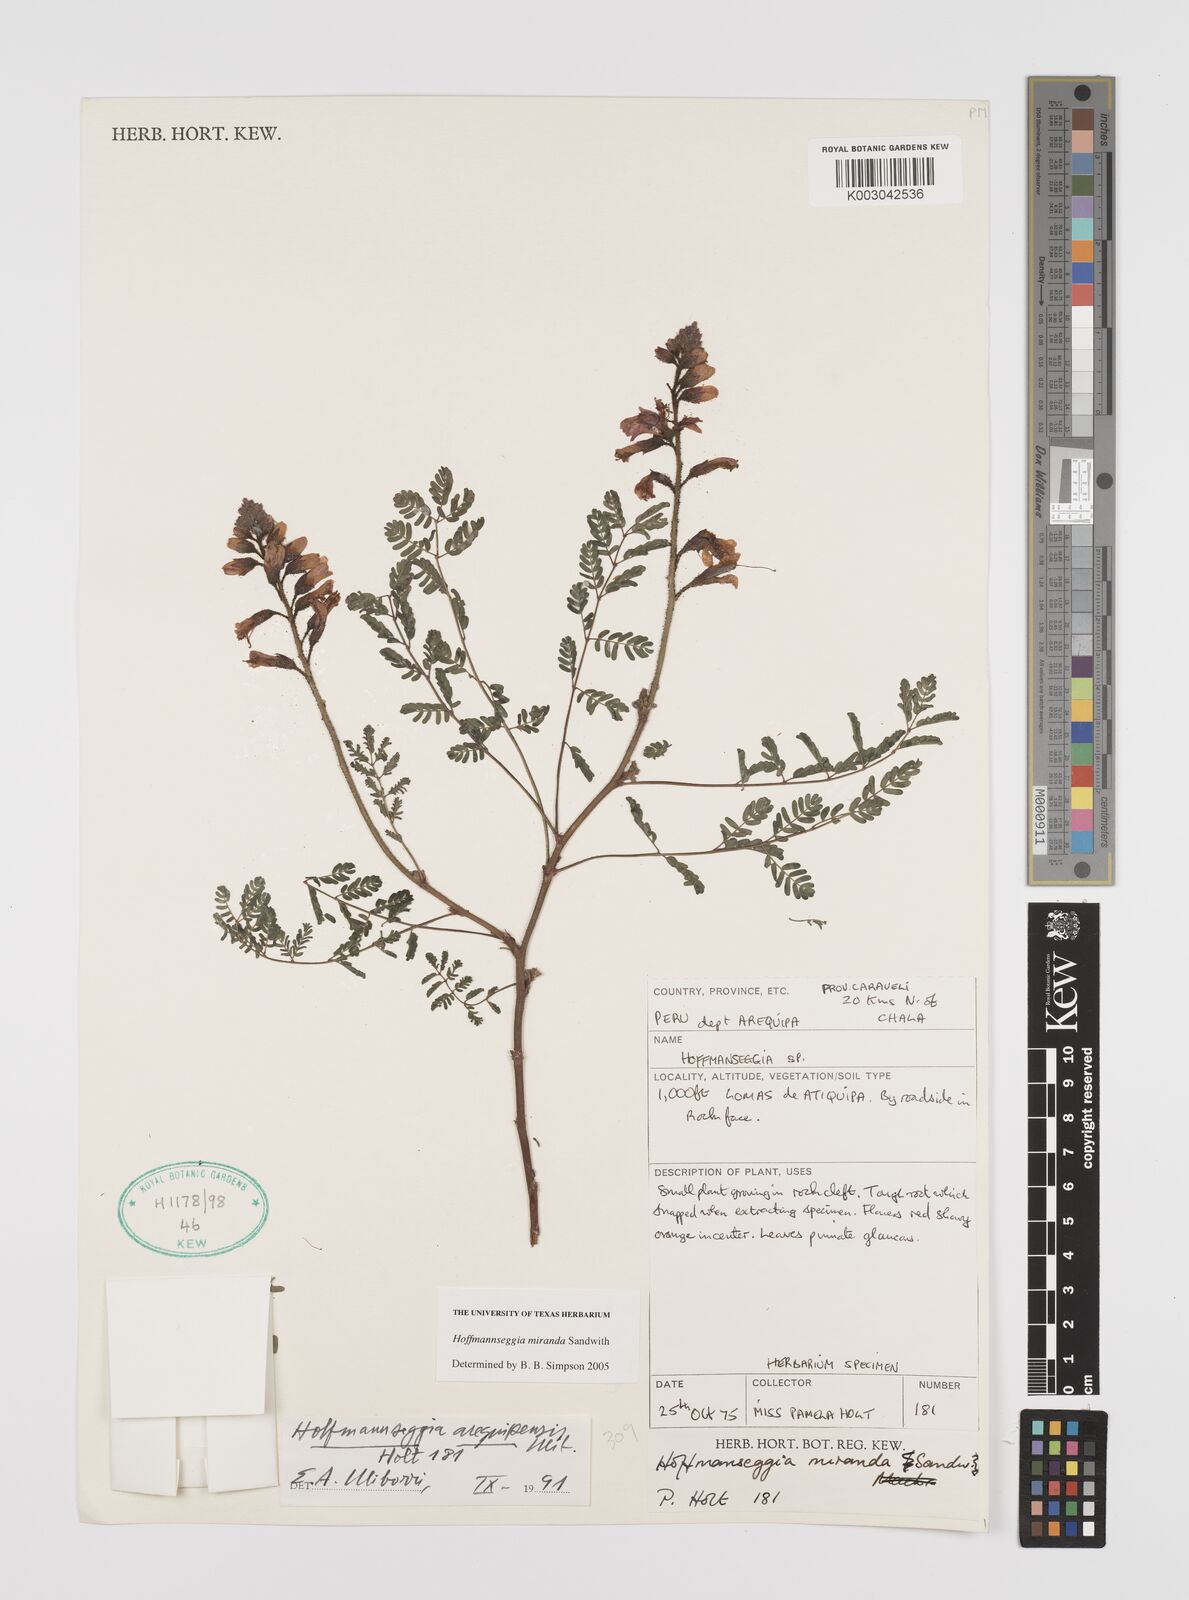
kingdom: Plantae
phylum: Tracheophyta
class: Magnoliopsida
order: Fabales
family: Fabaceae
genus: Hoffmannseggia
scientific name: Hoffmannseggia miranda
